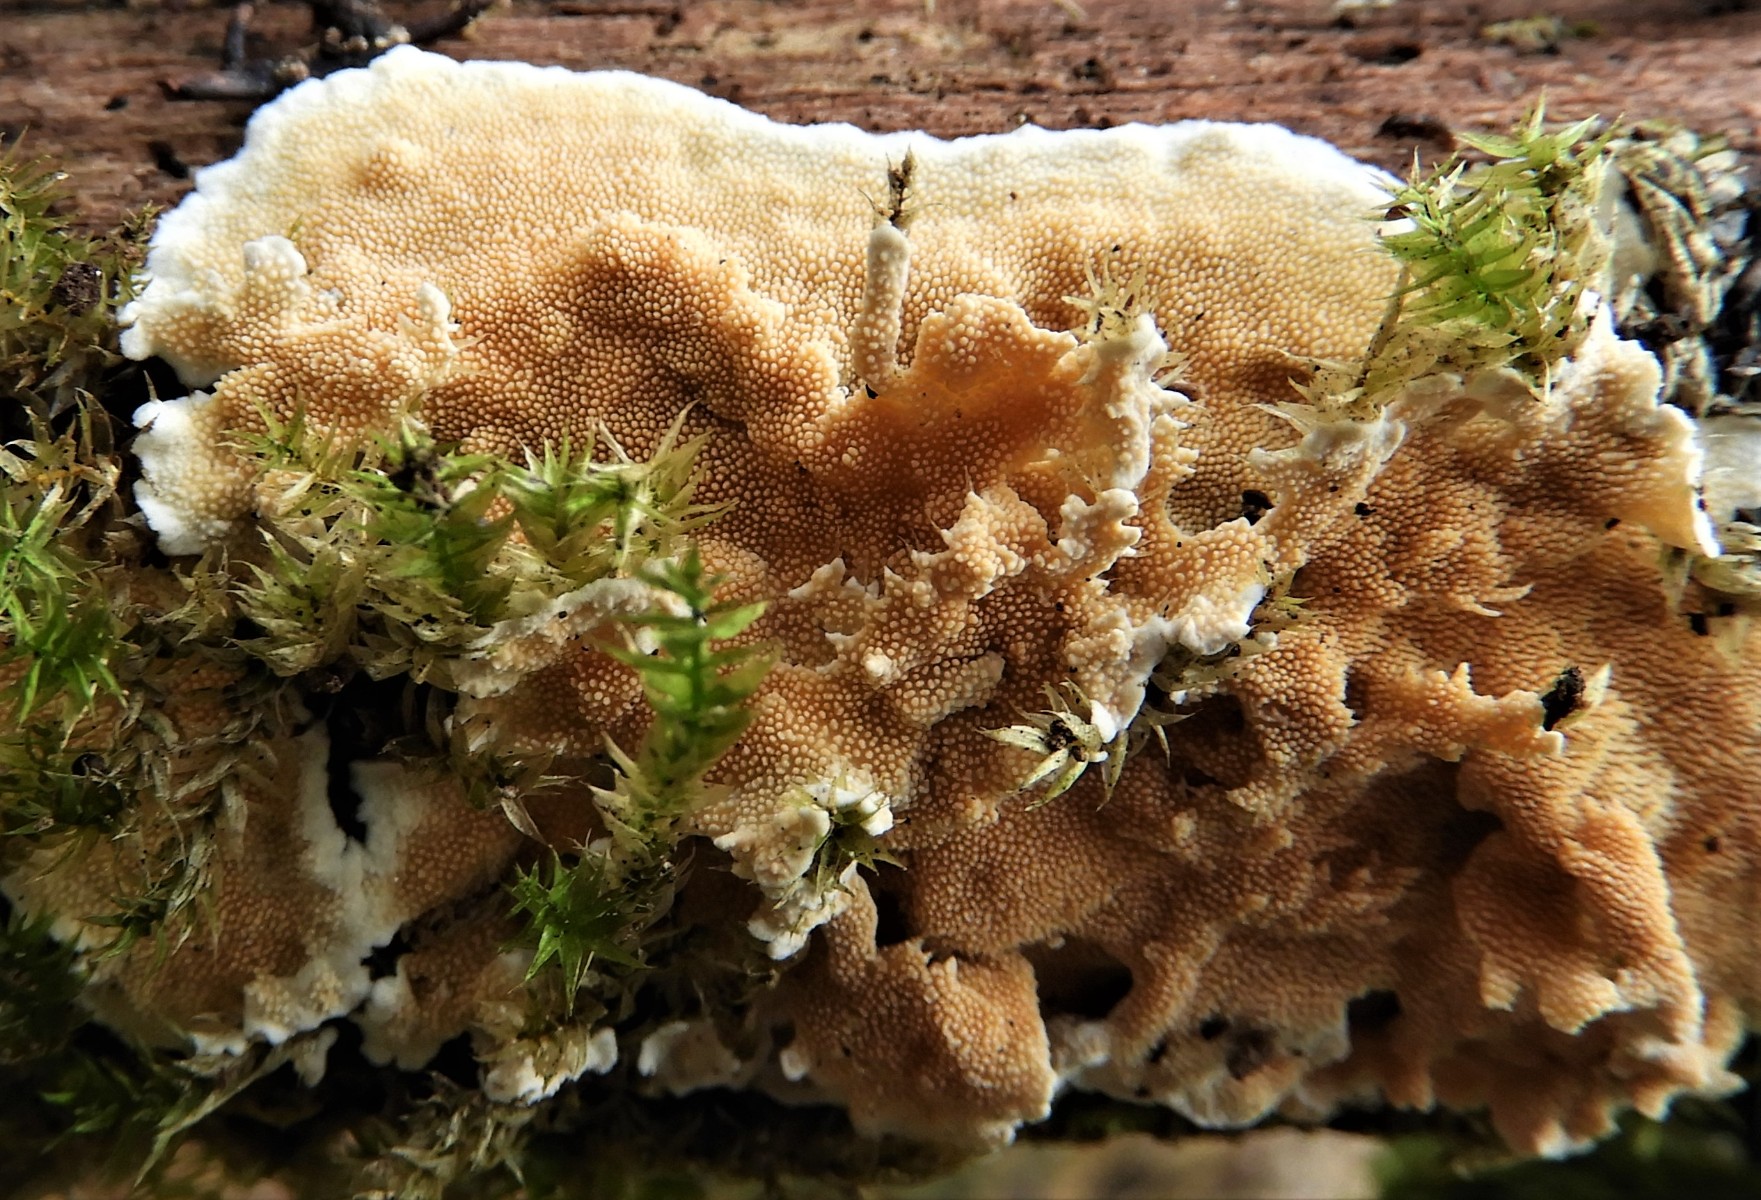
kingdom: Fungi
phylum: Basidiomycota
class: Agaricomycetes
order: Polyporales
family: Steccherinaceae
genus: Steccherinum
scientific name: Steccherinum ochraceum
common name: almindelig skønpig
